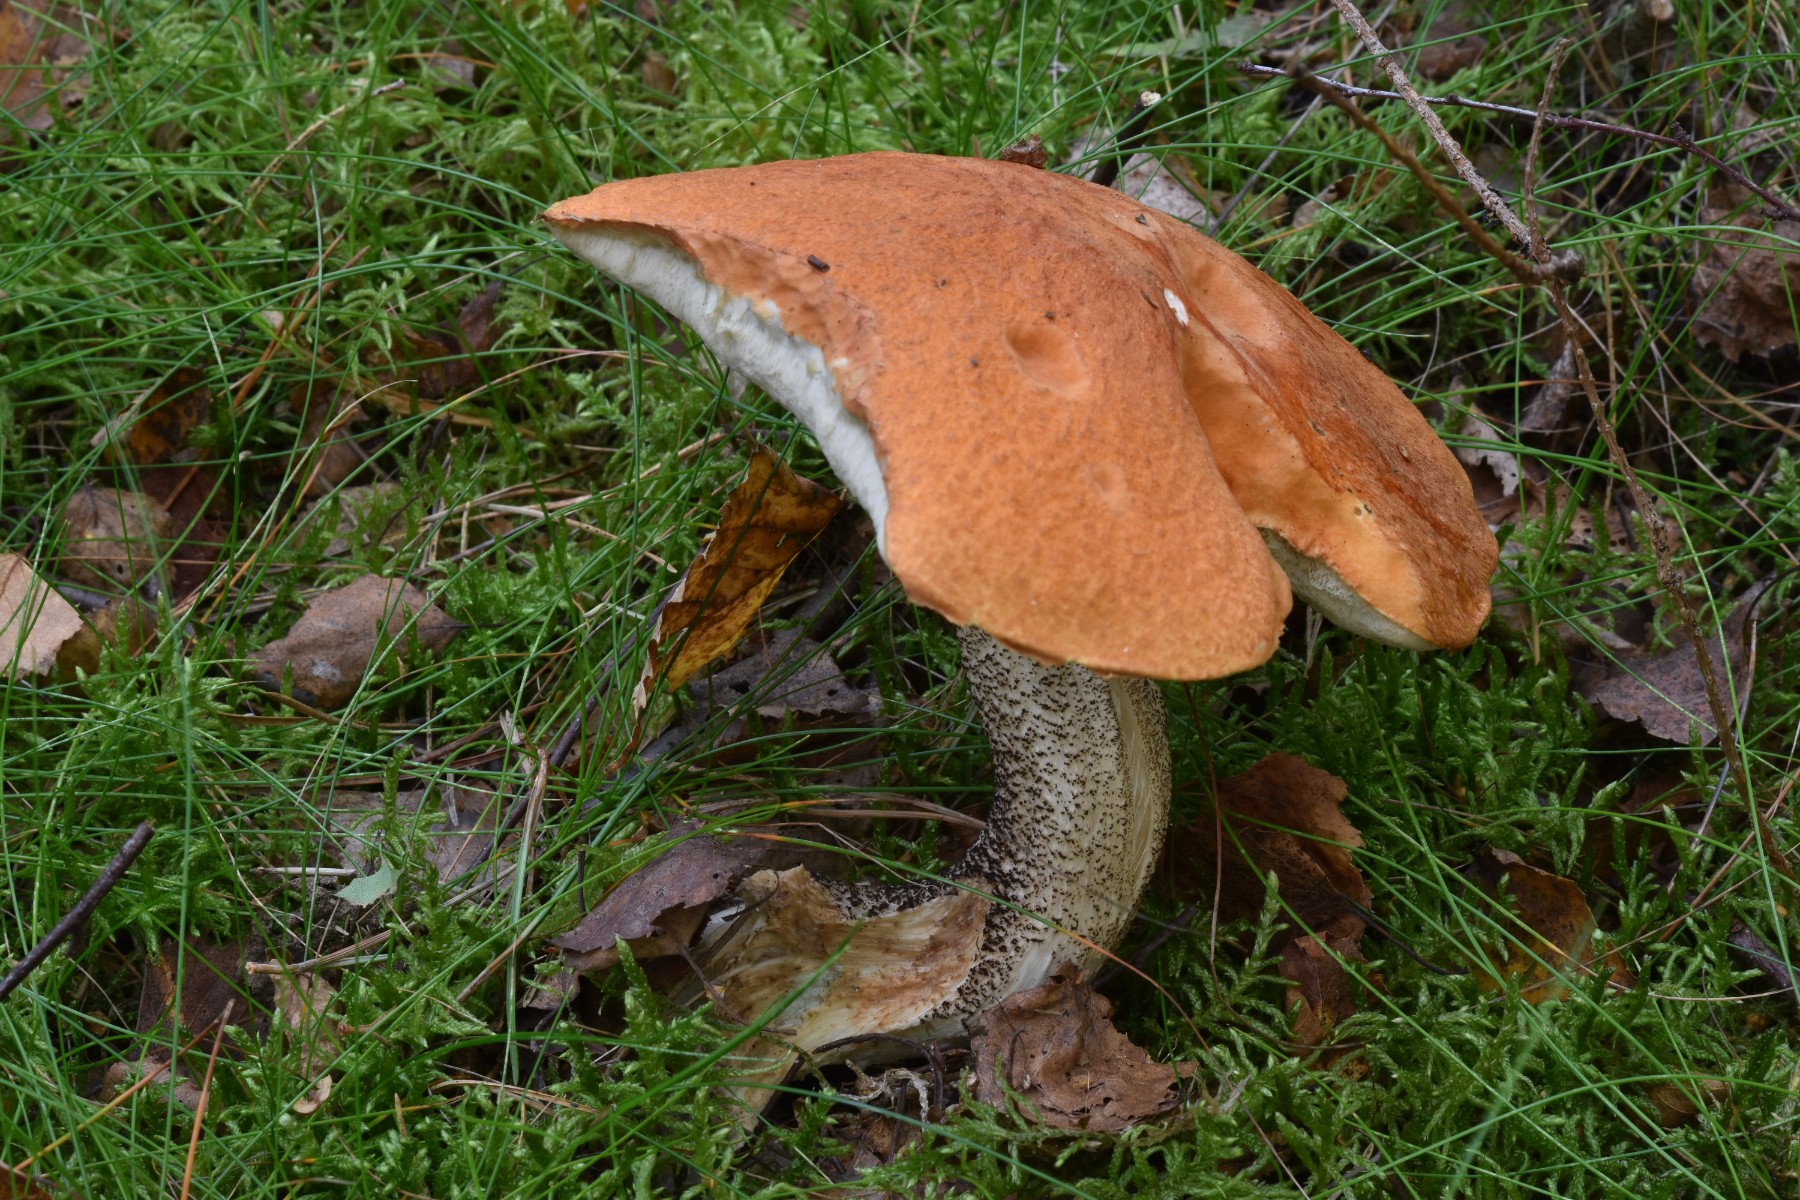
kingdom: Fungi
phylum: Basidiomycota
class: Agaricomycetes
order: Boletales
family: Boletaceae
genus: Leccinum
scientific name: Leccinum versipelle
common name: orange skælrørhat
